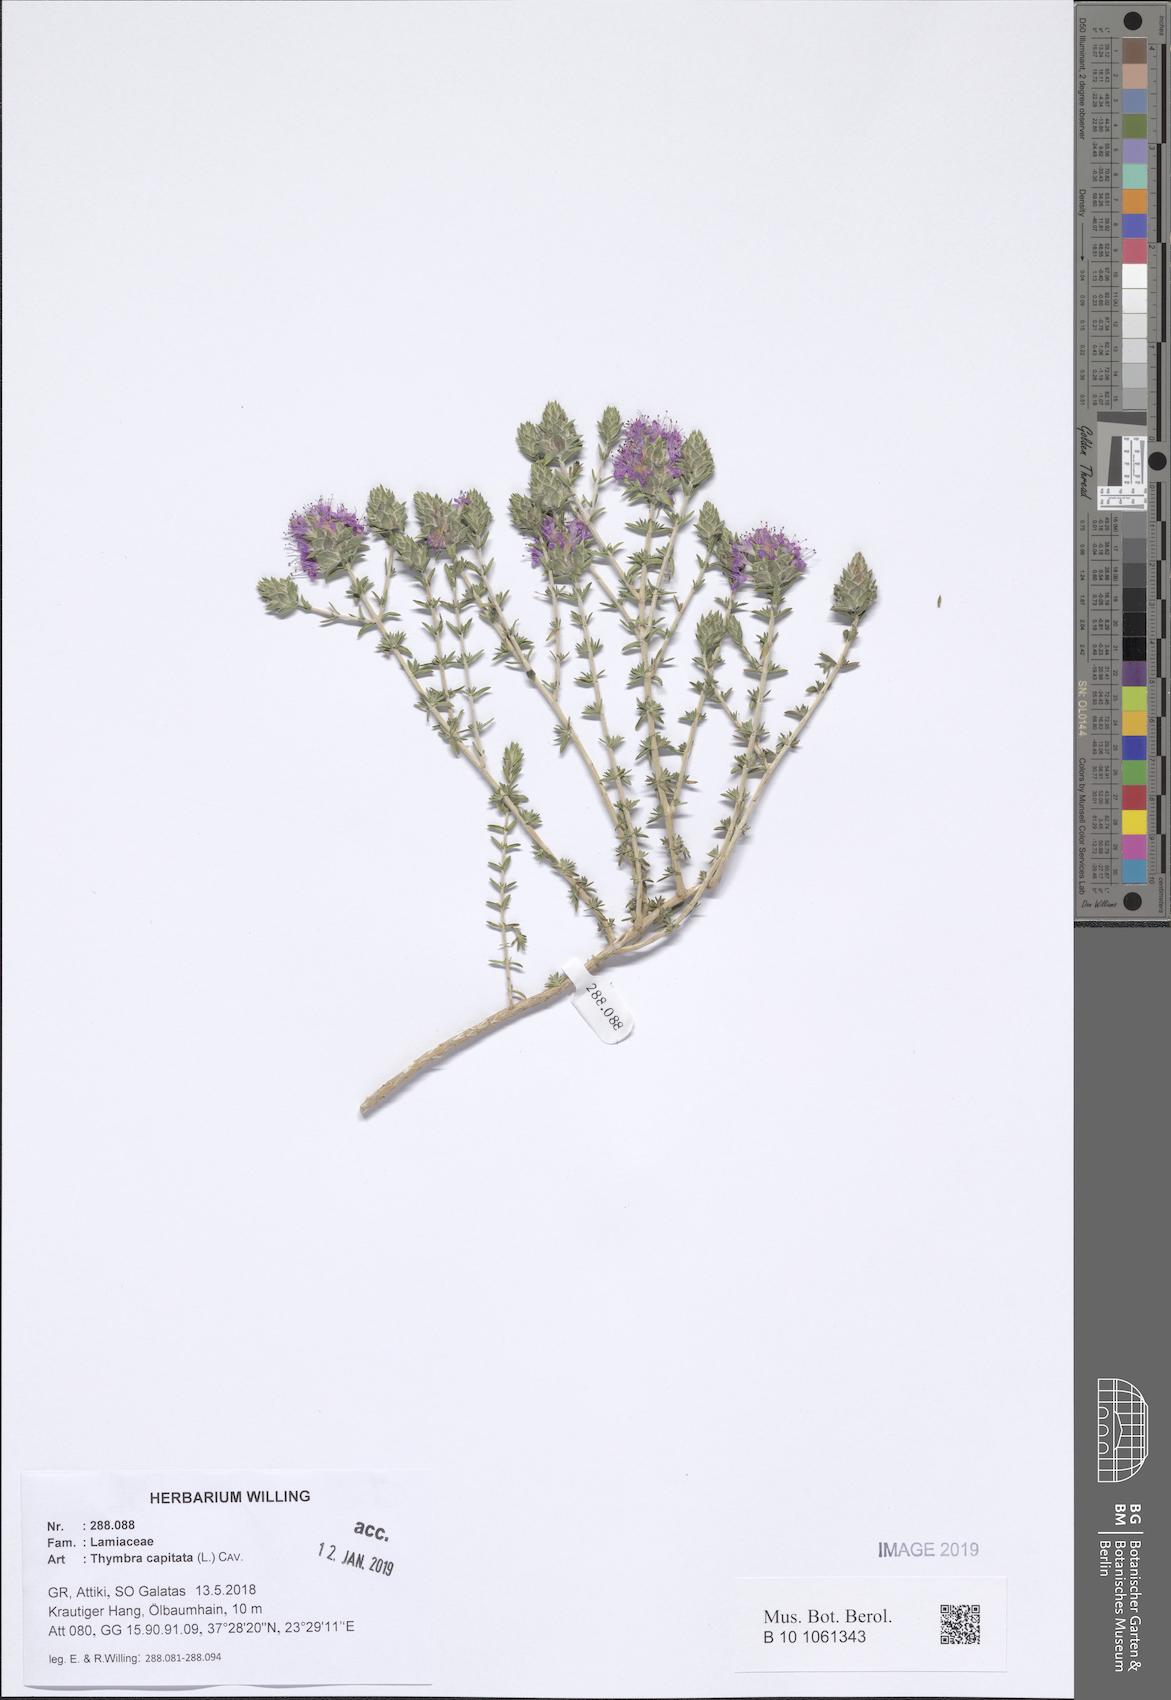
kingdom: Plantae
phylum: Tracheophyta
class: Magnoliopsida
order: Lamiales
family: Lamiaceae
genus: Thymbra
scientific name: Thymbra capitata
